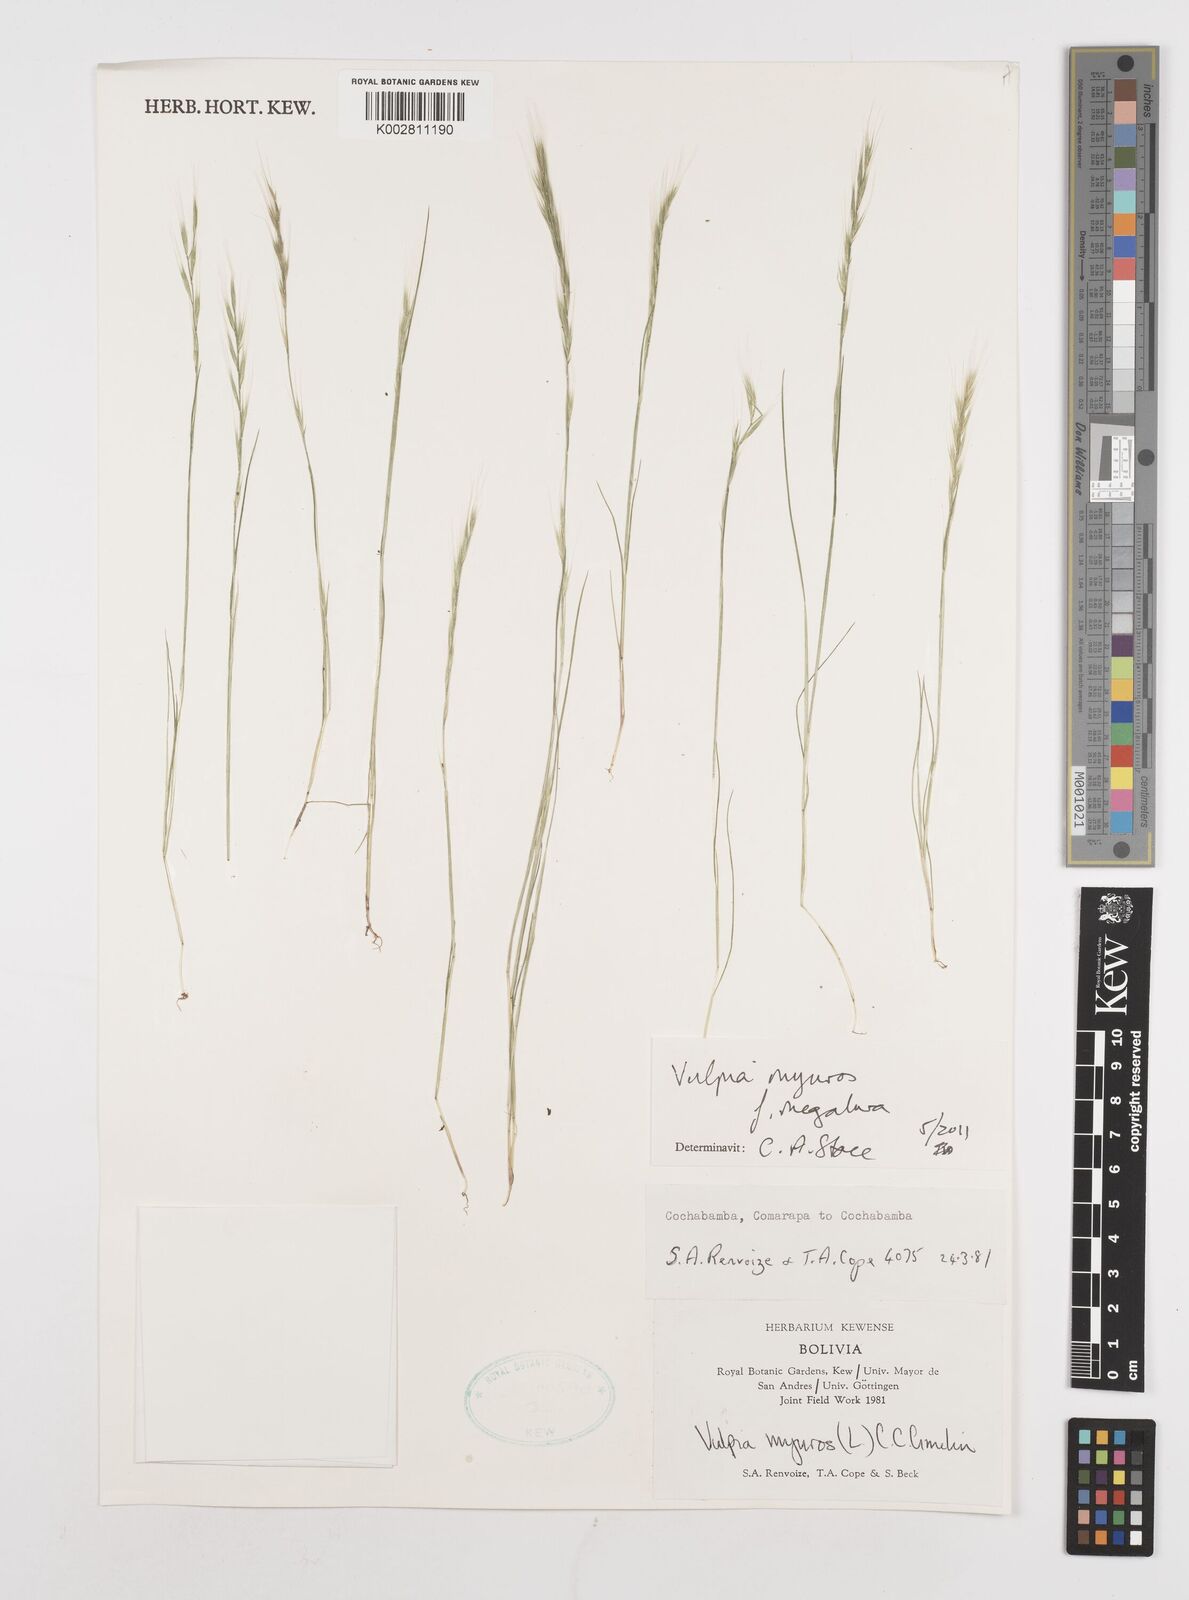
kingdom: Plantae
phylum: Tracheophyta
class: Liliopsida
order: Poales
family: Poaceae
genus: Festuca
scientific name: Festuca myuros
